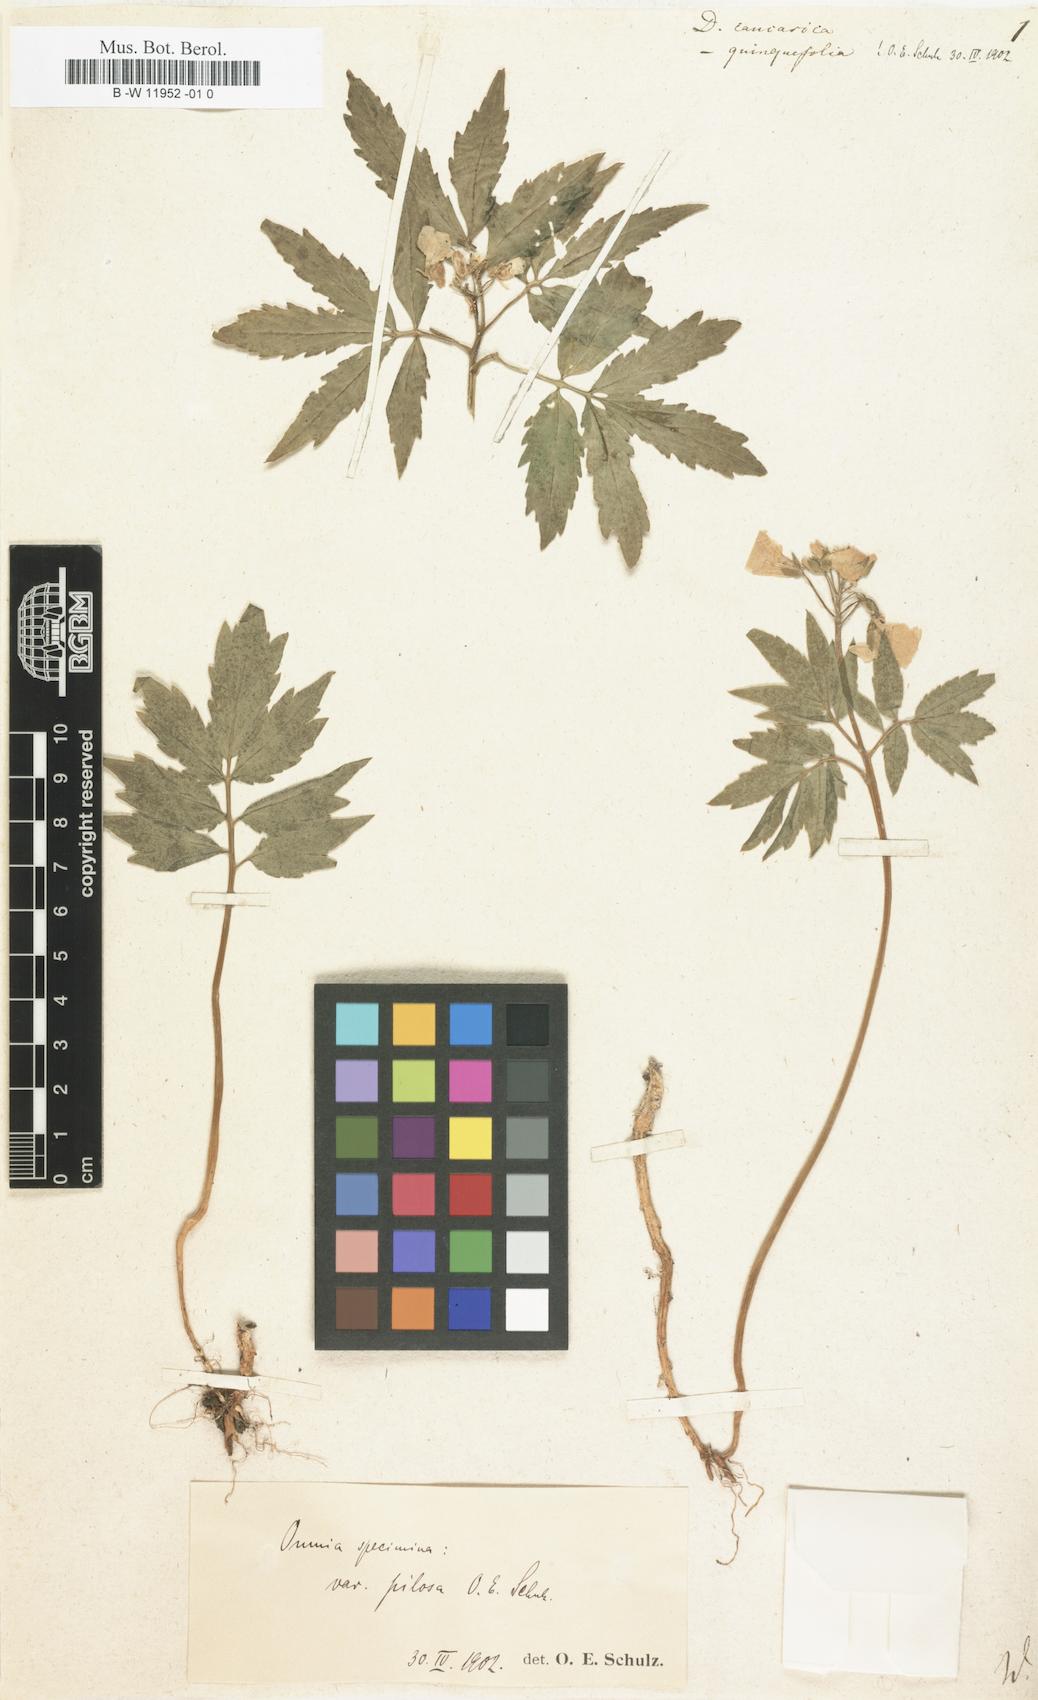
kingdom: Plantae
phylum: Tracheophyta
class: Magnoliopsida
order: Brassicales
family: Brassicaceae
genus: Cardamine
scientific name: Cardamine uliginosa
